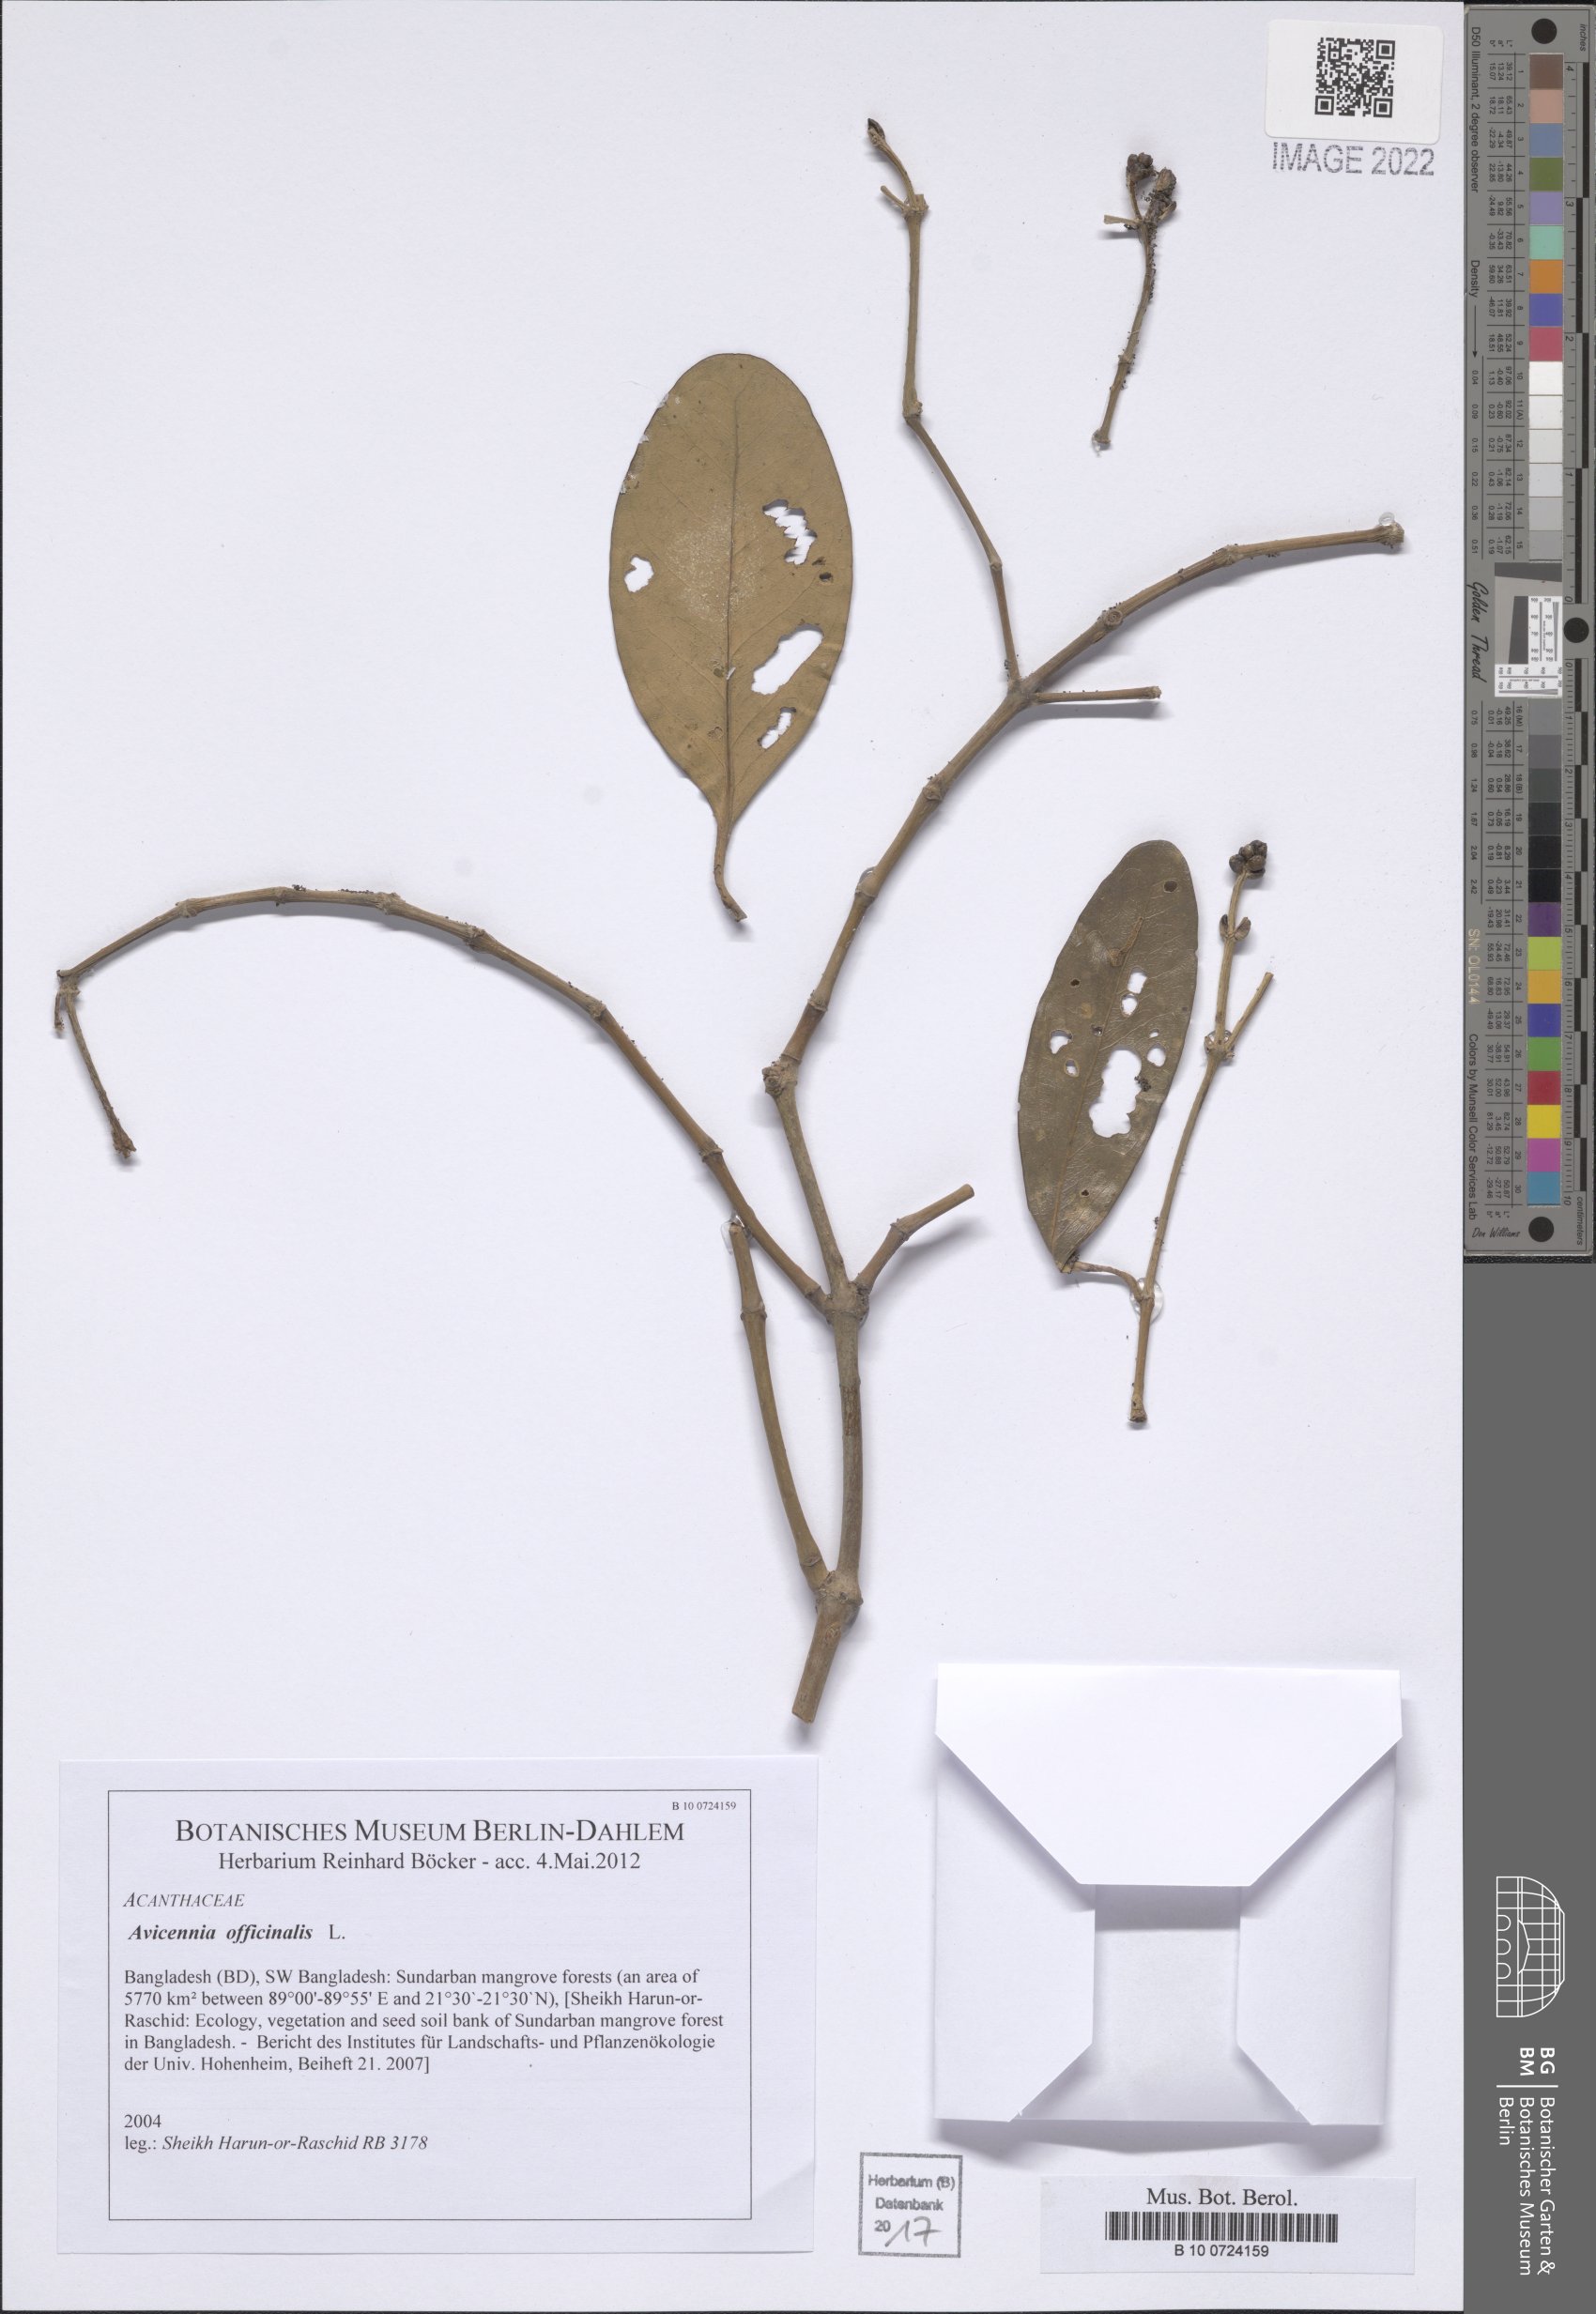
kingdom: Plantae
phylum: Tracheophyta
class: Magnoliopsida
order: Lamiales
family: Acanthaceae
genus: Avicennia
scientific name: Avicennia officinalis
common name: Baen
